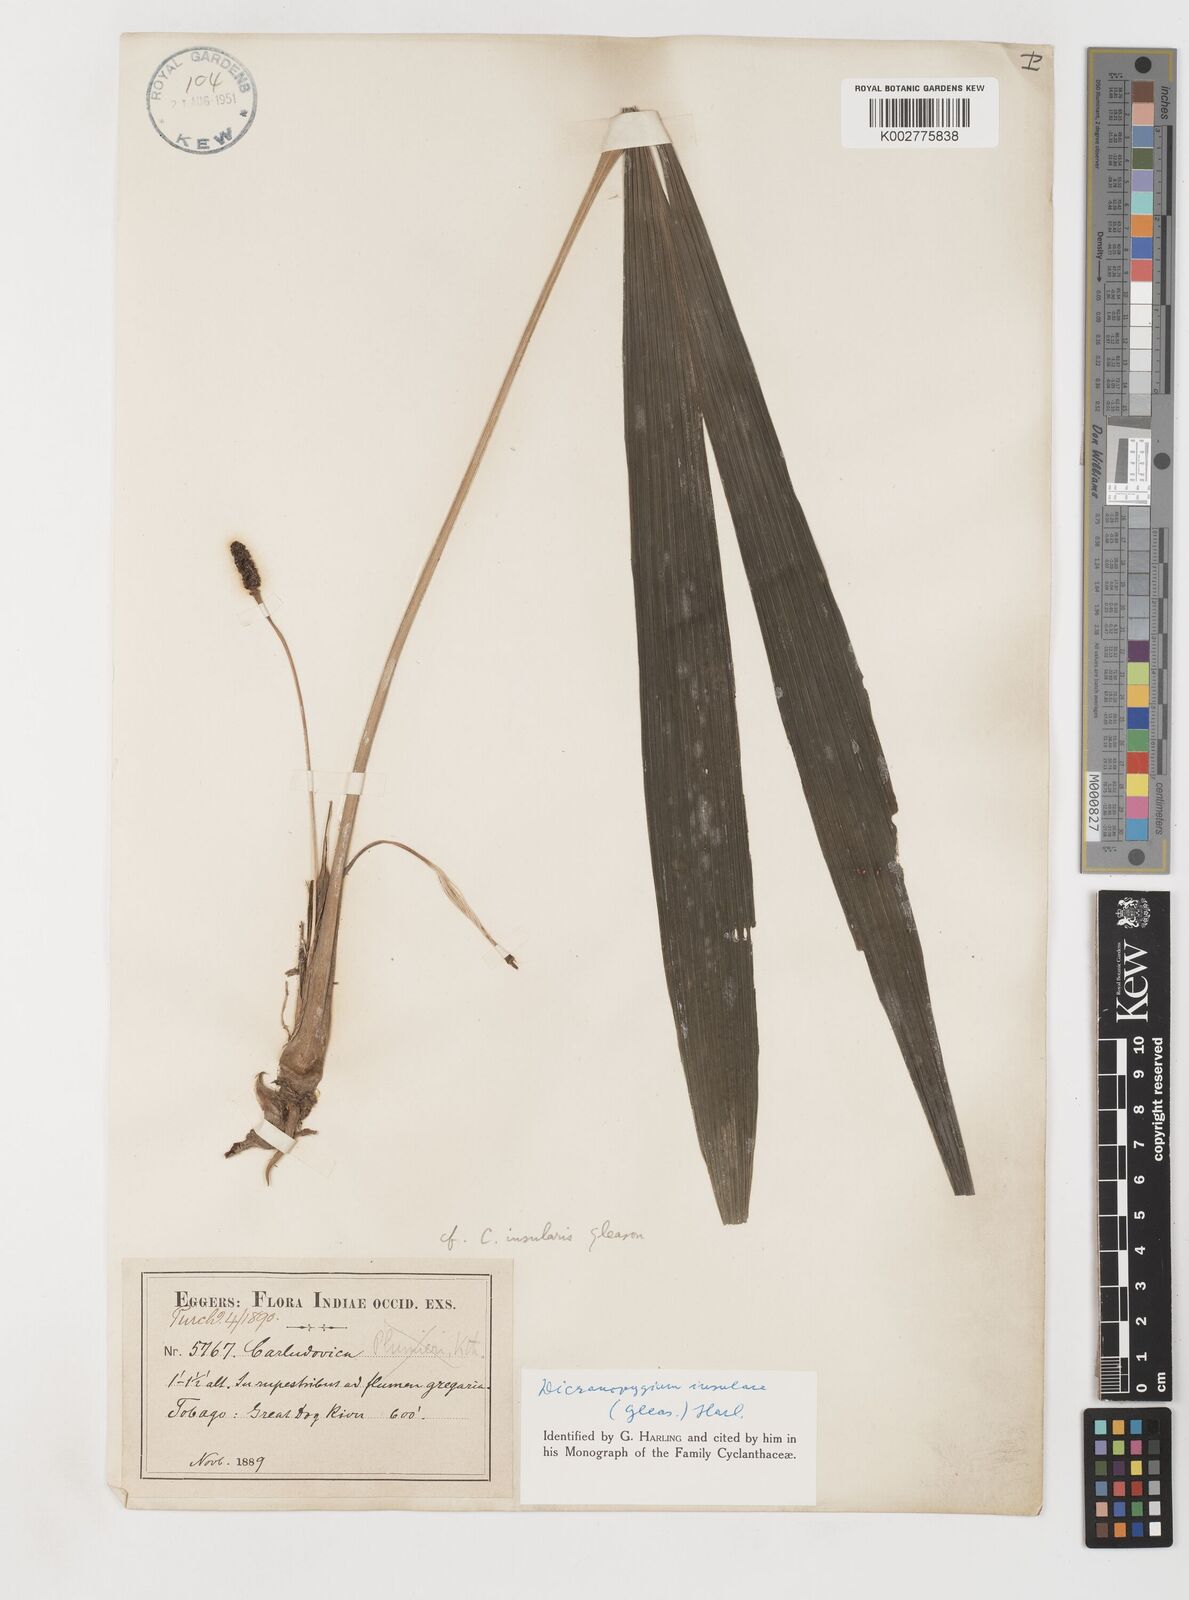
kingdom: Plantae
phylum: Tracheophyta
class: Liliopsida
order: Pandanales
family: Cyclanthaceae
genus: Dicranopygium
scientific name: Dicranopygium insulare
